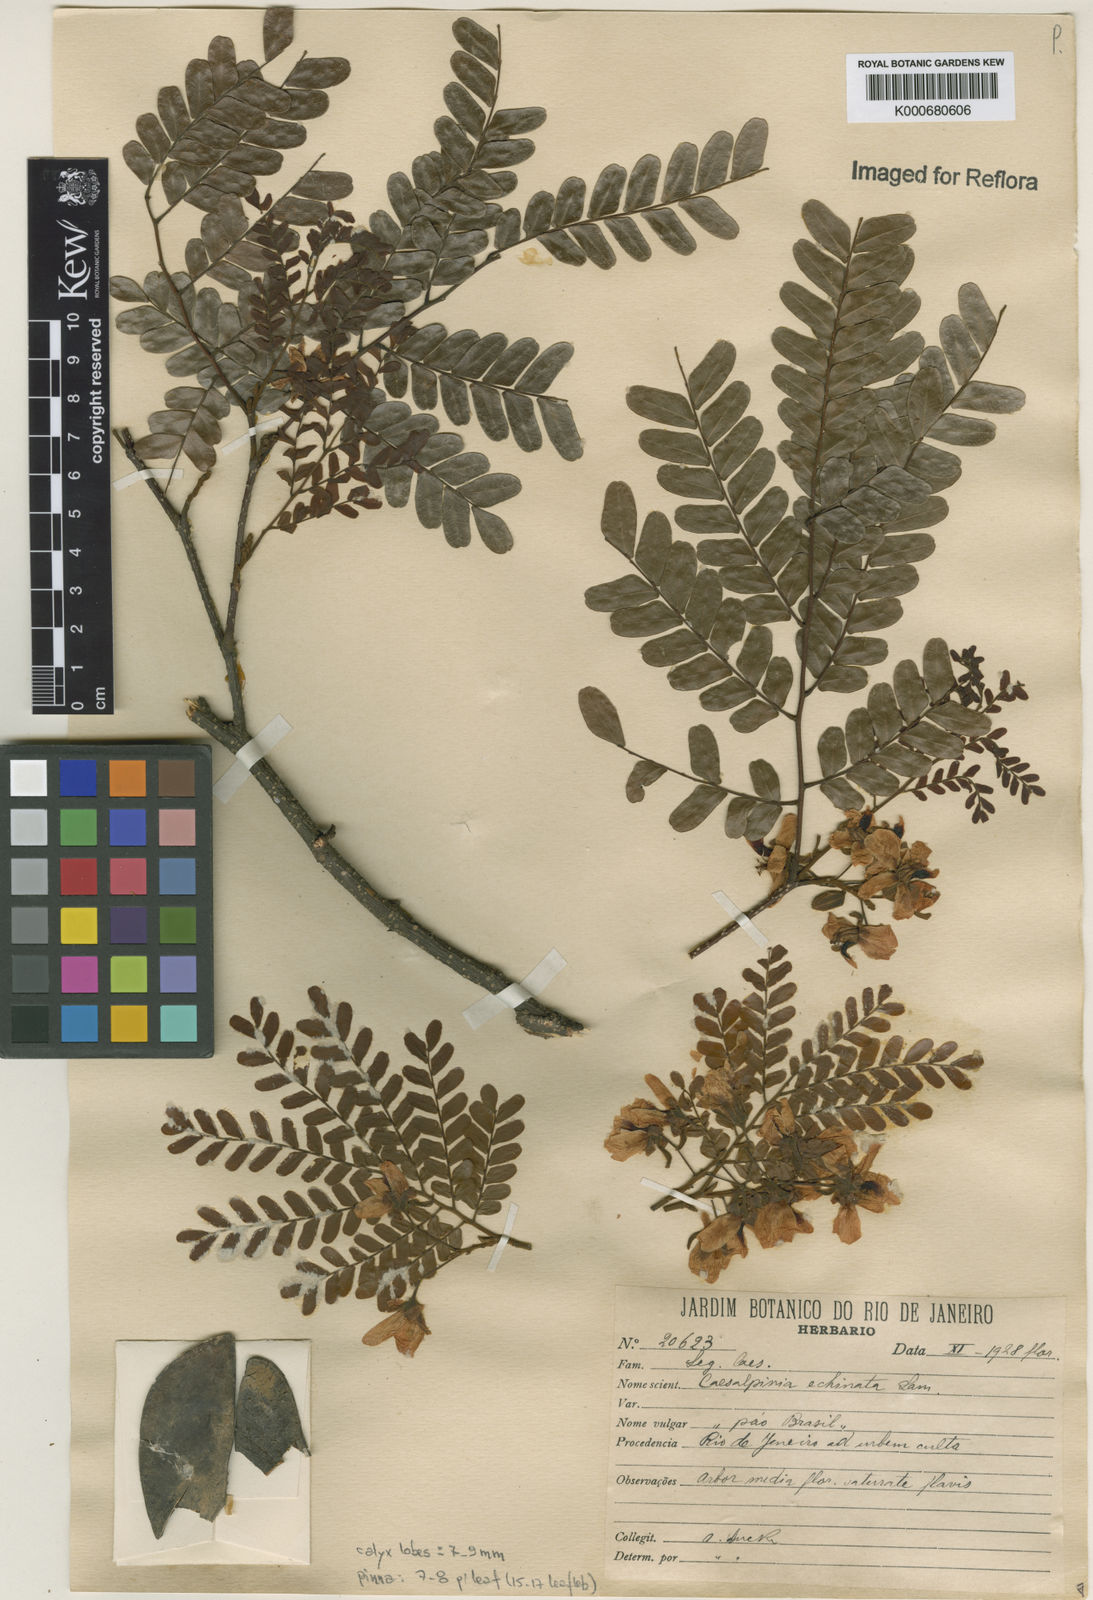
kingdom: Plantae
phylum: Tracheophyta
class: Magnoliopsida
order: Fabales
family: Fabaceae
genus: Paubrasilia
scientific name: Paubrasilia echinata
